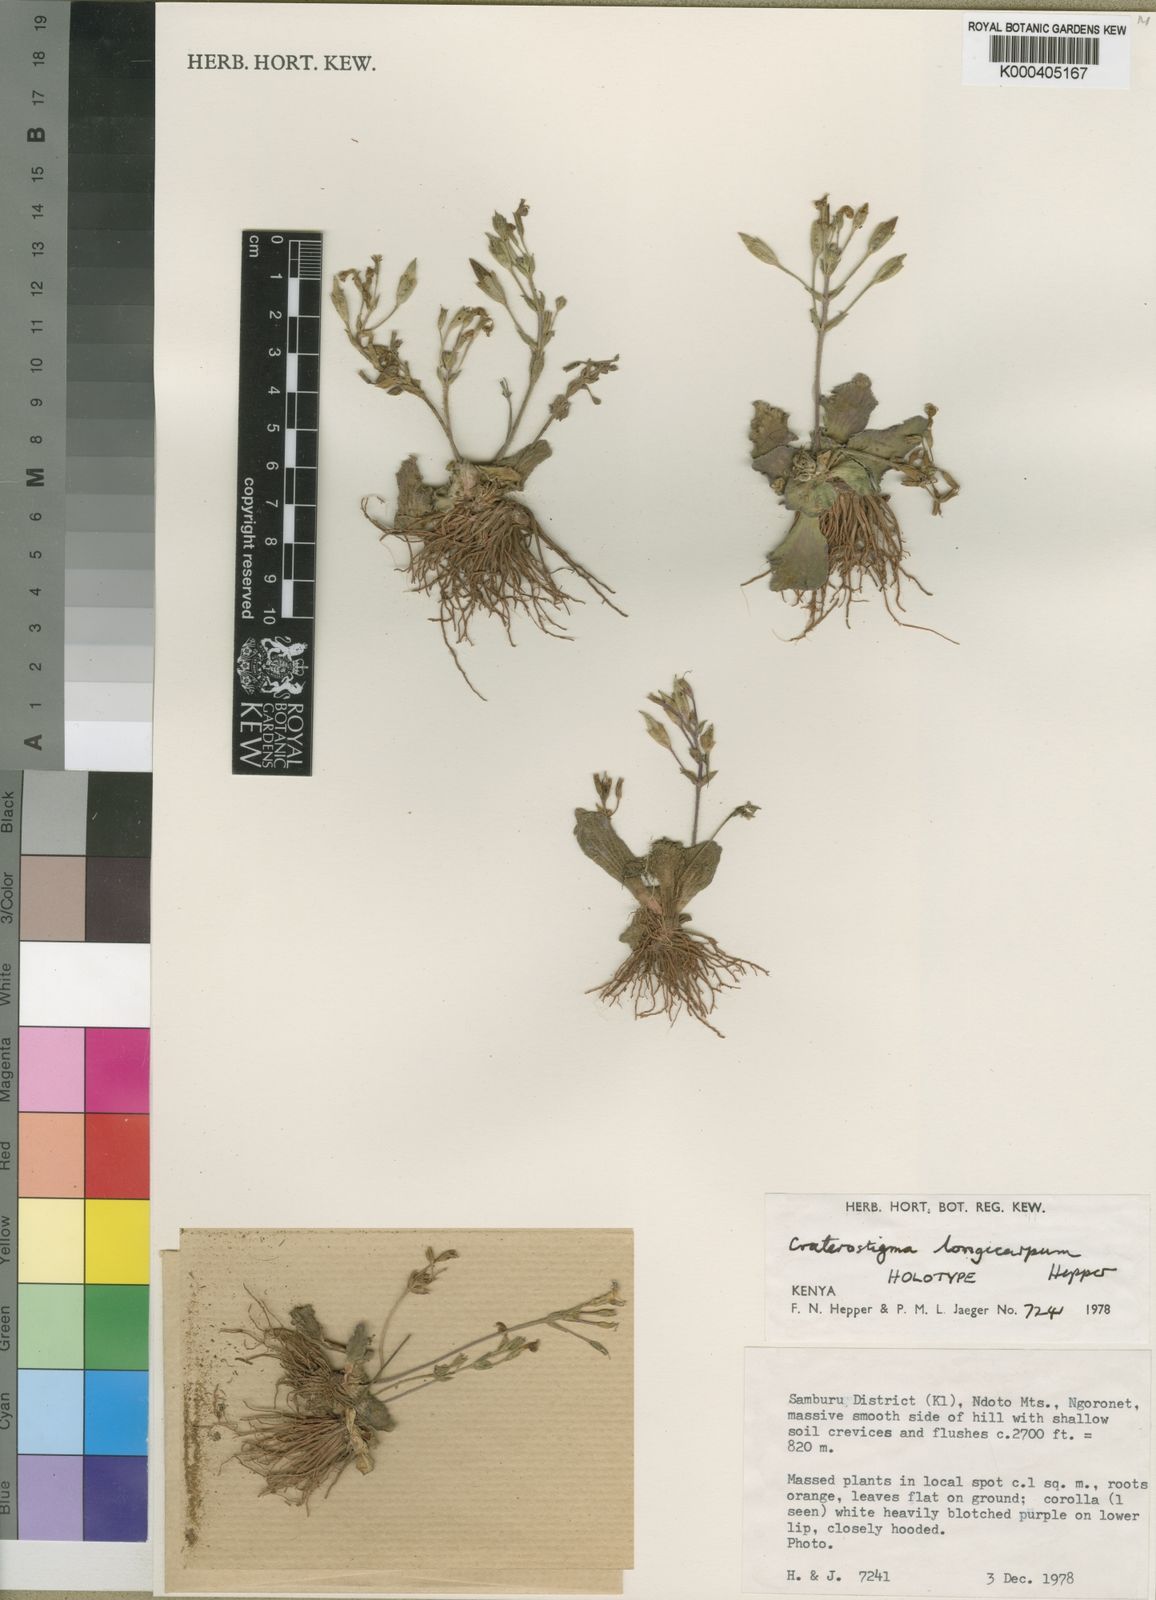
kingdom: Plantae
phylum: Tracheophyta
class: Magnoliopsida
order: Lamiales
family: Linderniaceae
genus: Craterostigma
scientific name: Craterostigma longicarpum
